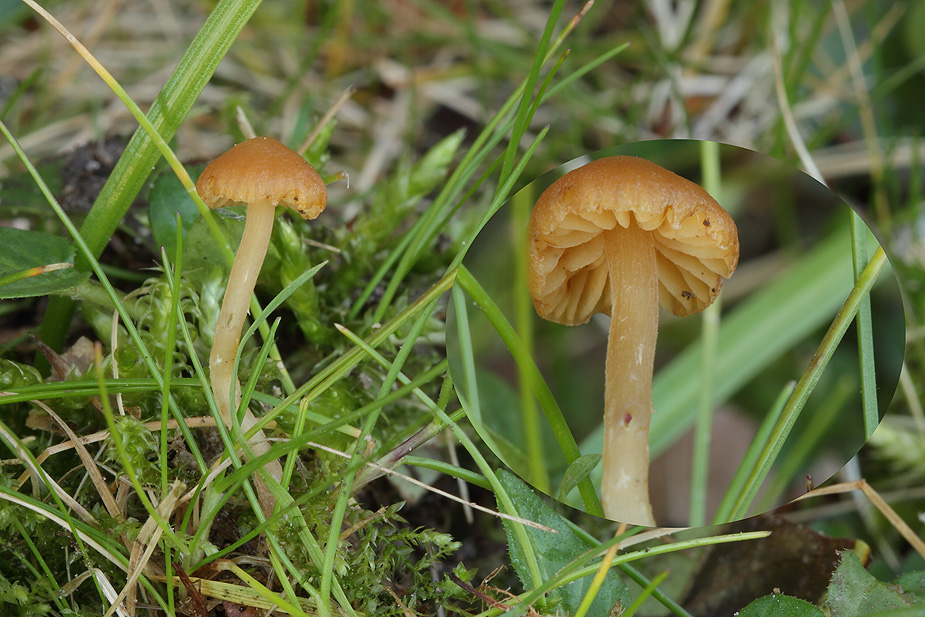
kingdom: Fungi
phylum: Basidiomycota
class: Agaricomycetes
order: Agaricales
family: Hymenogastraceae
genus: Galerina
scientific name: Galerina graminea
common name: plæne-hjelmhat
